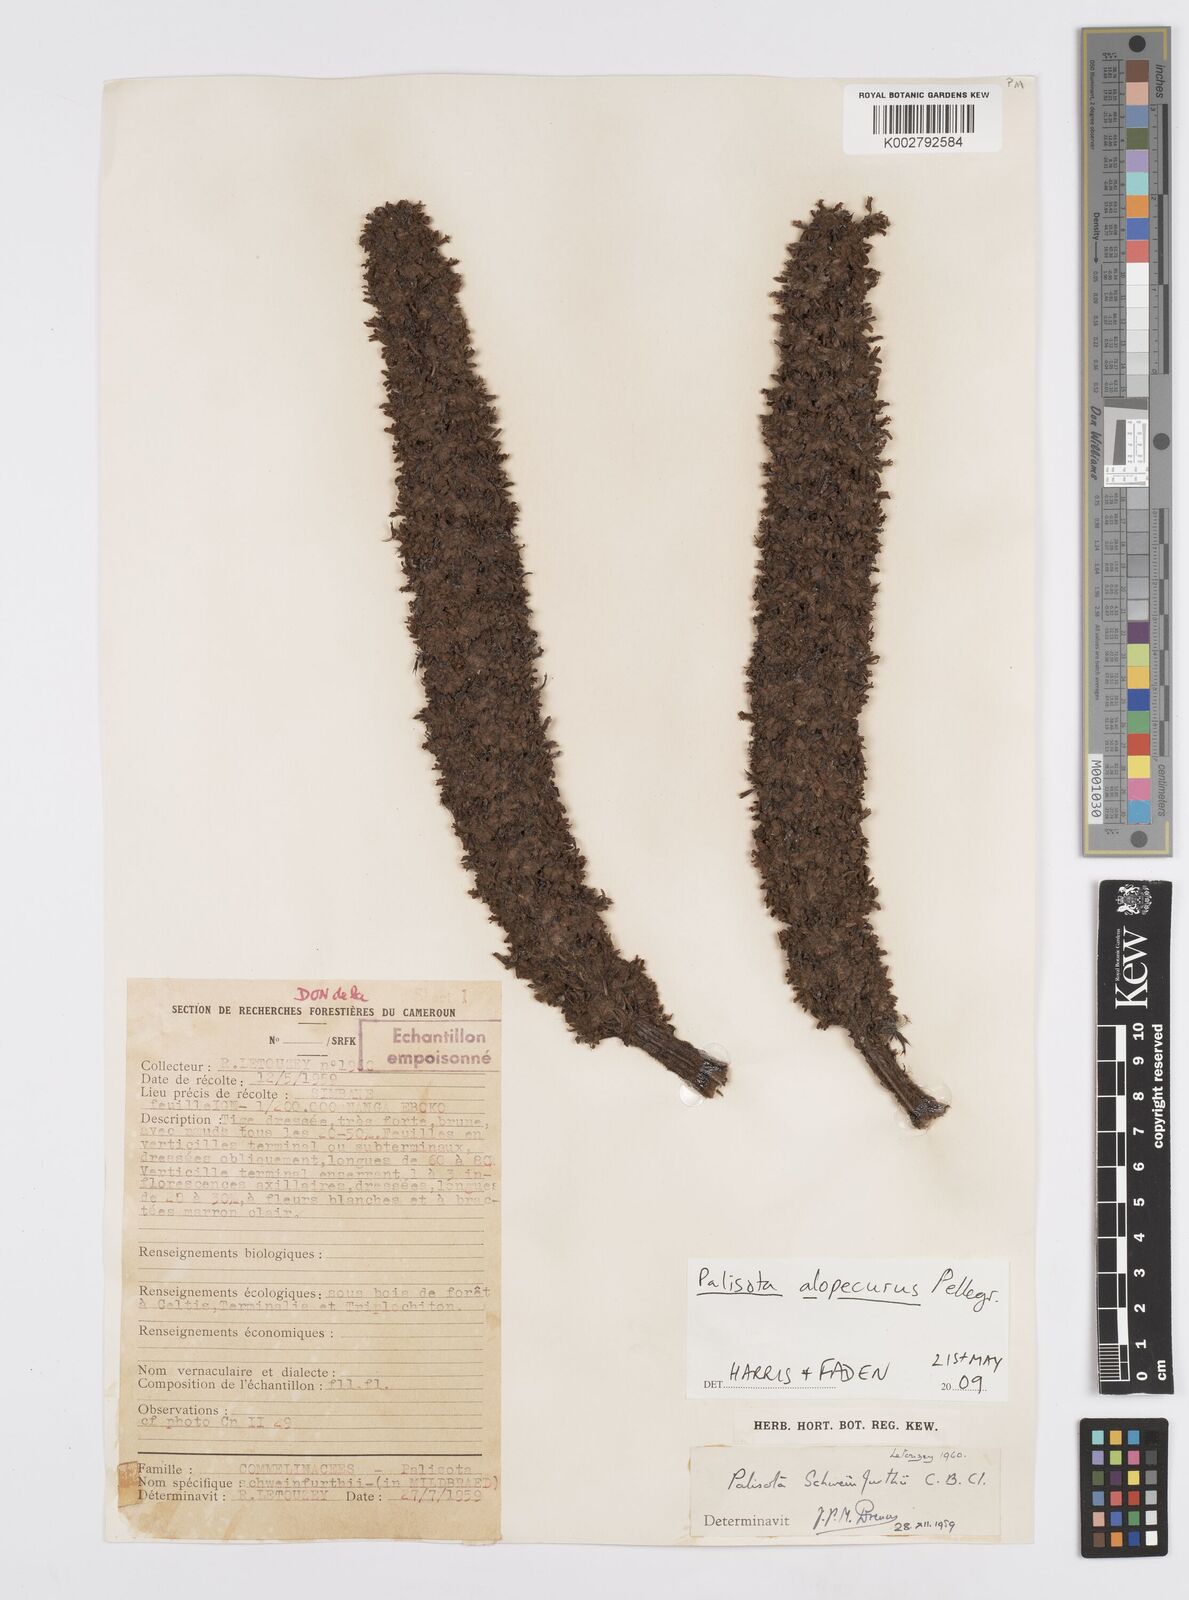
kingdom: Plantae
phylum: Tracheophyta
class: Liliopsida
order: Commelinales
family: Commelinaceae
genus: Palisota
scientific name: Palisota alopecurus
